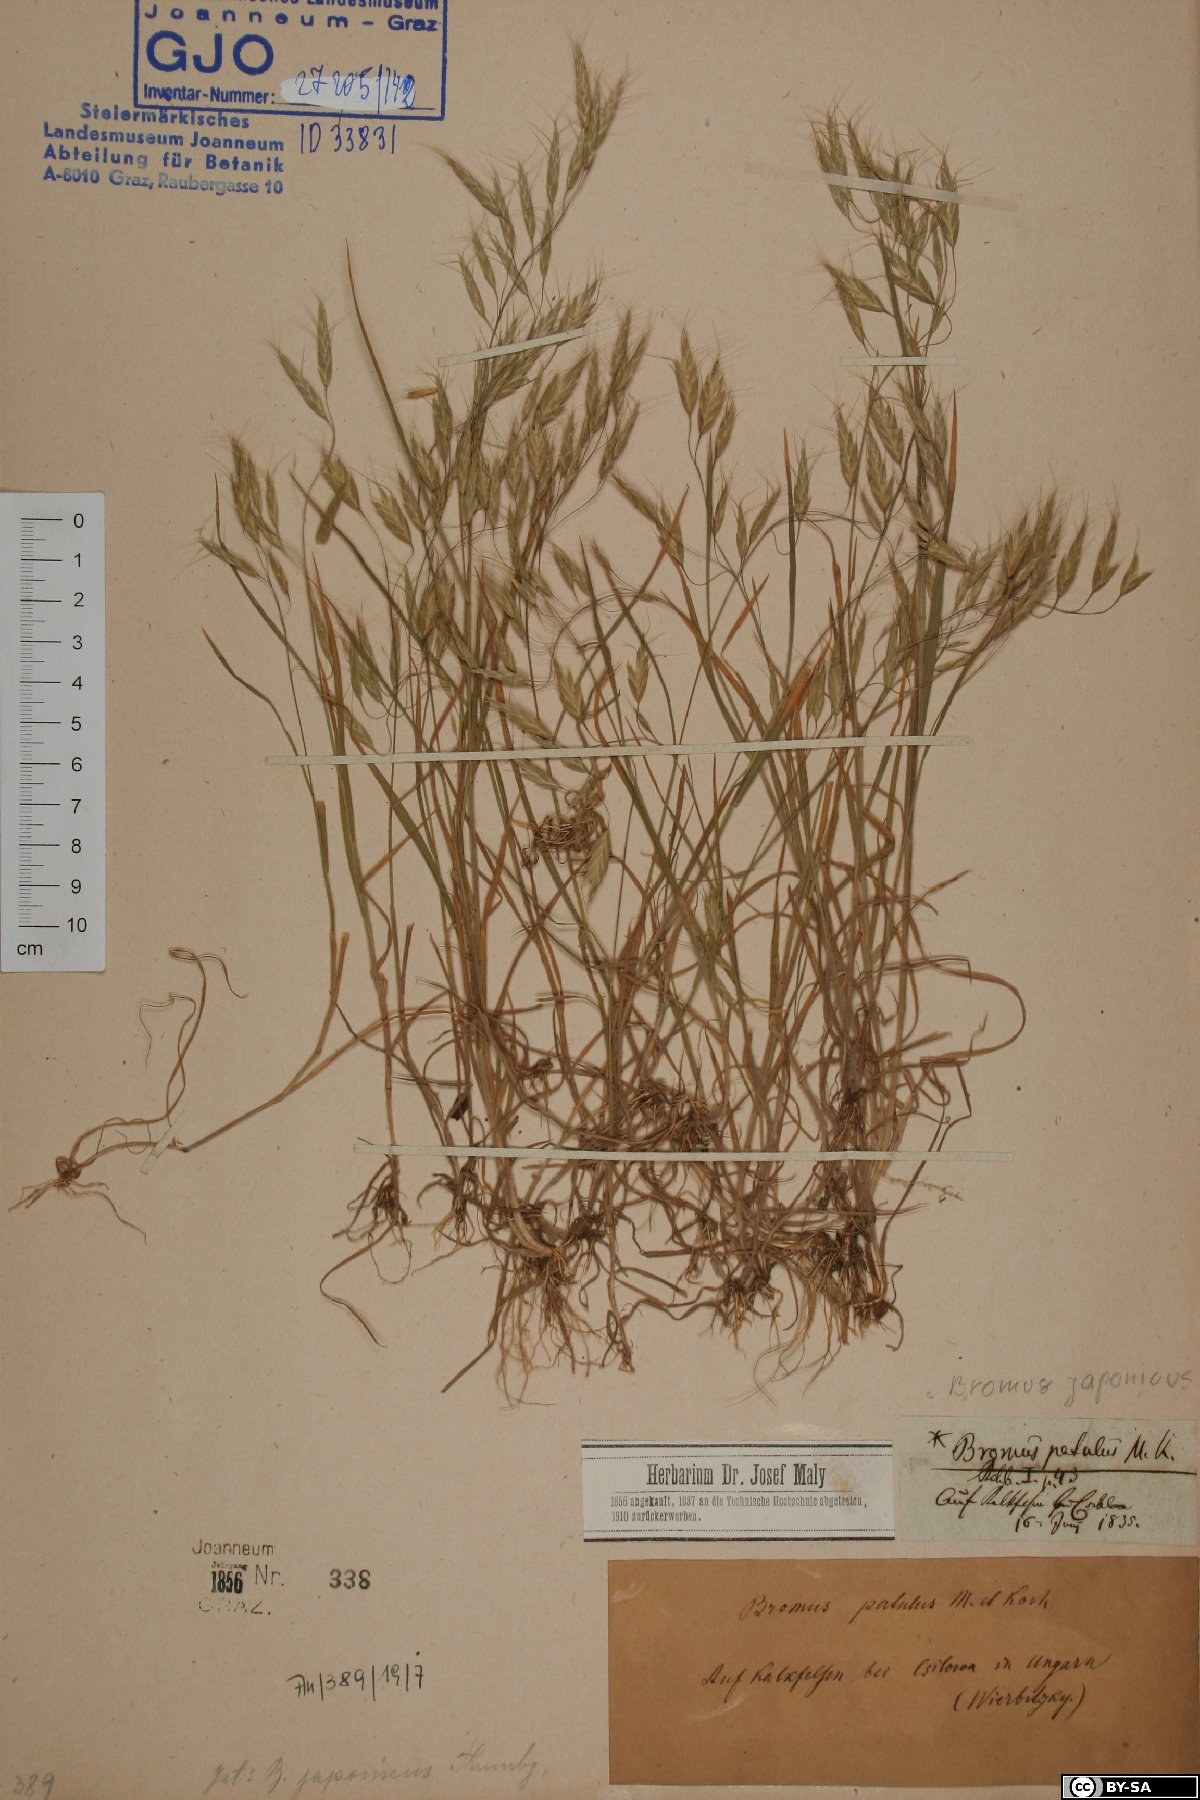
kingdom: Plantae
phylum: Tracheophyta
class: Liliopsida
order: Poales
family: Poaceae
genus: Bromus
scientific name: Bromus japonicus
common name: Japanese brome
